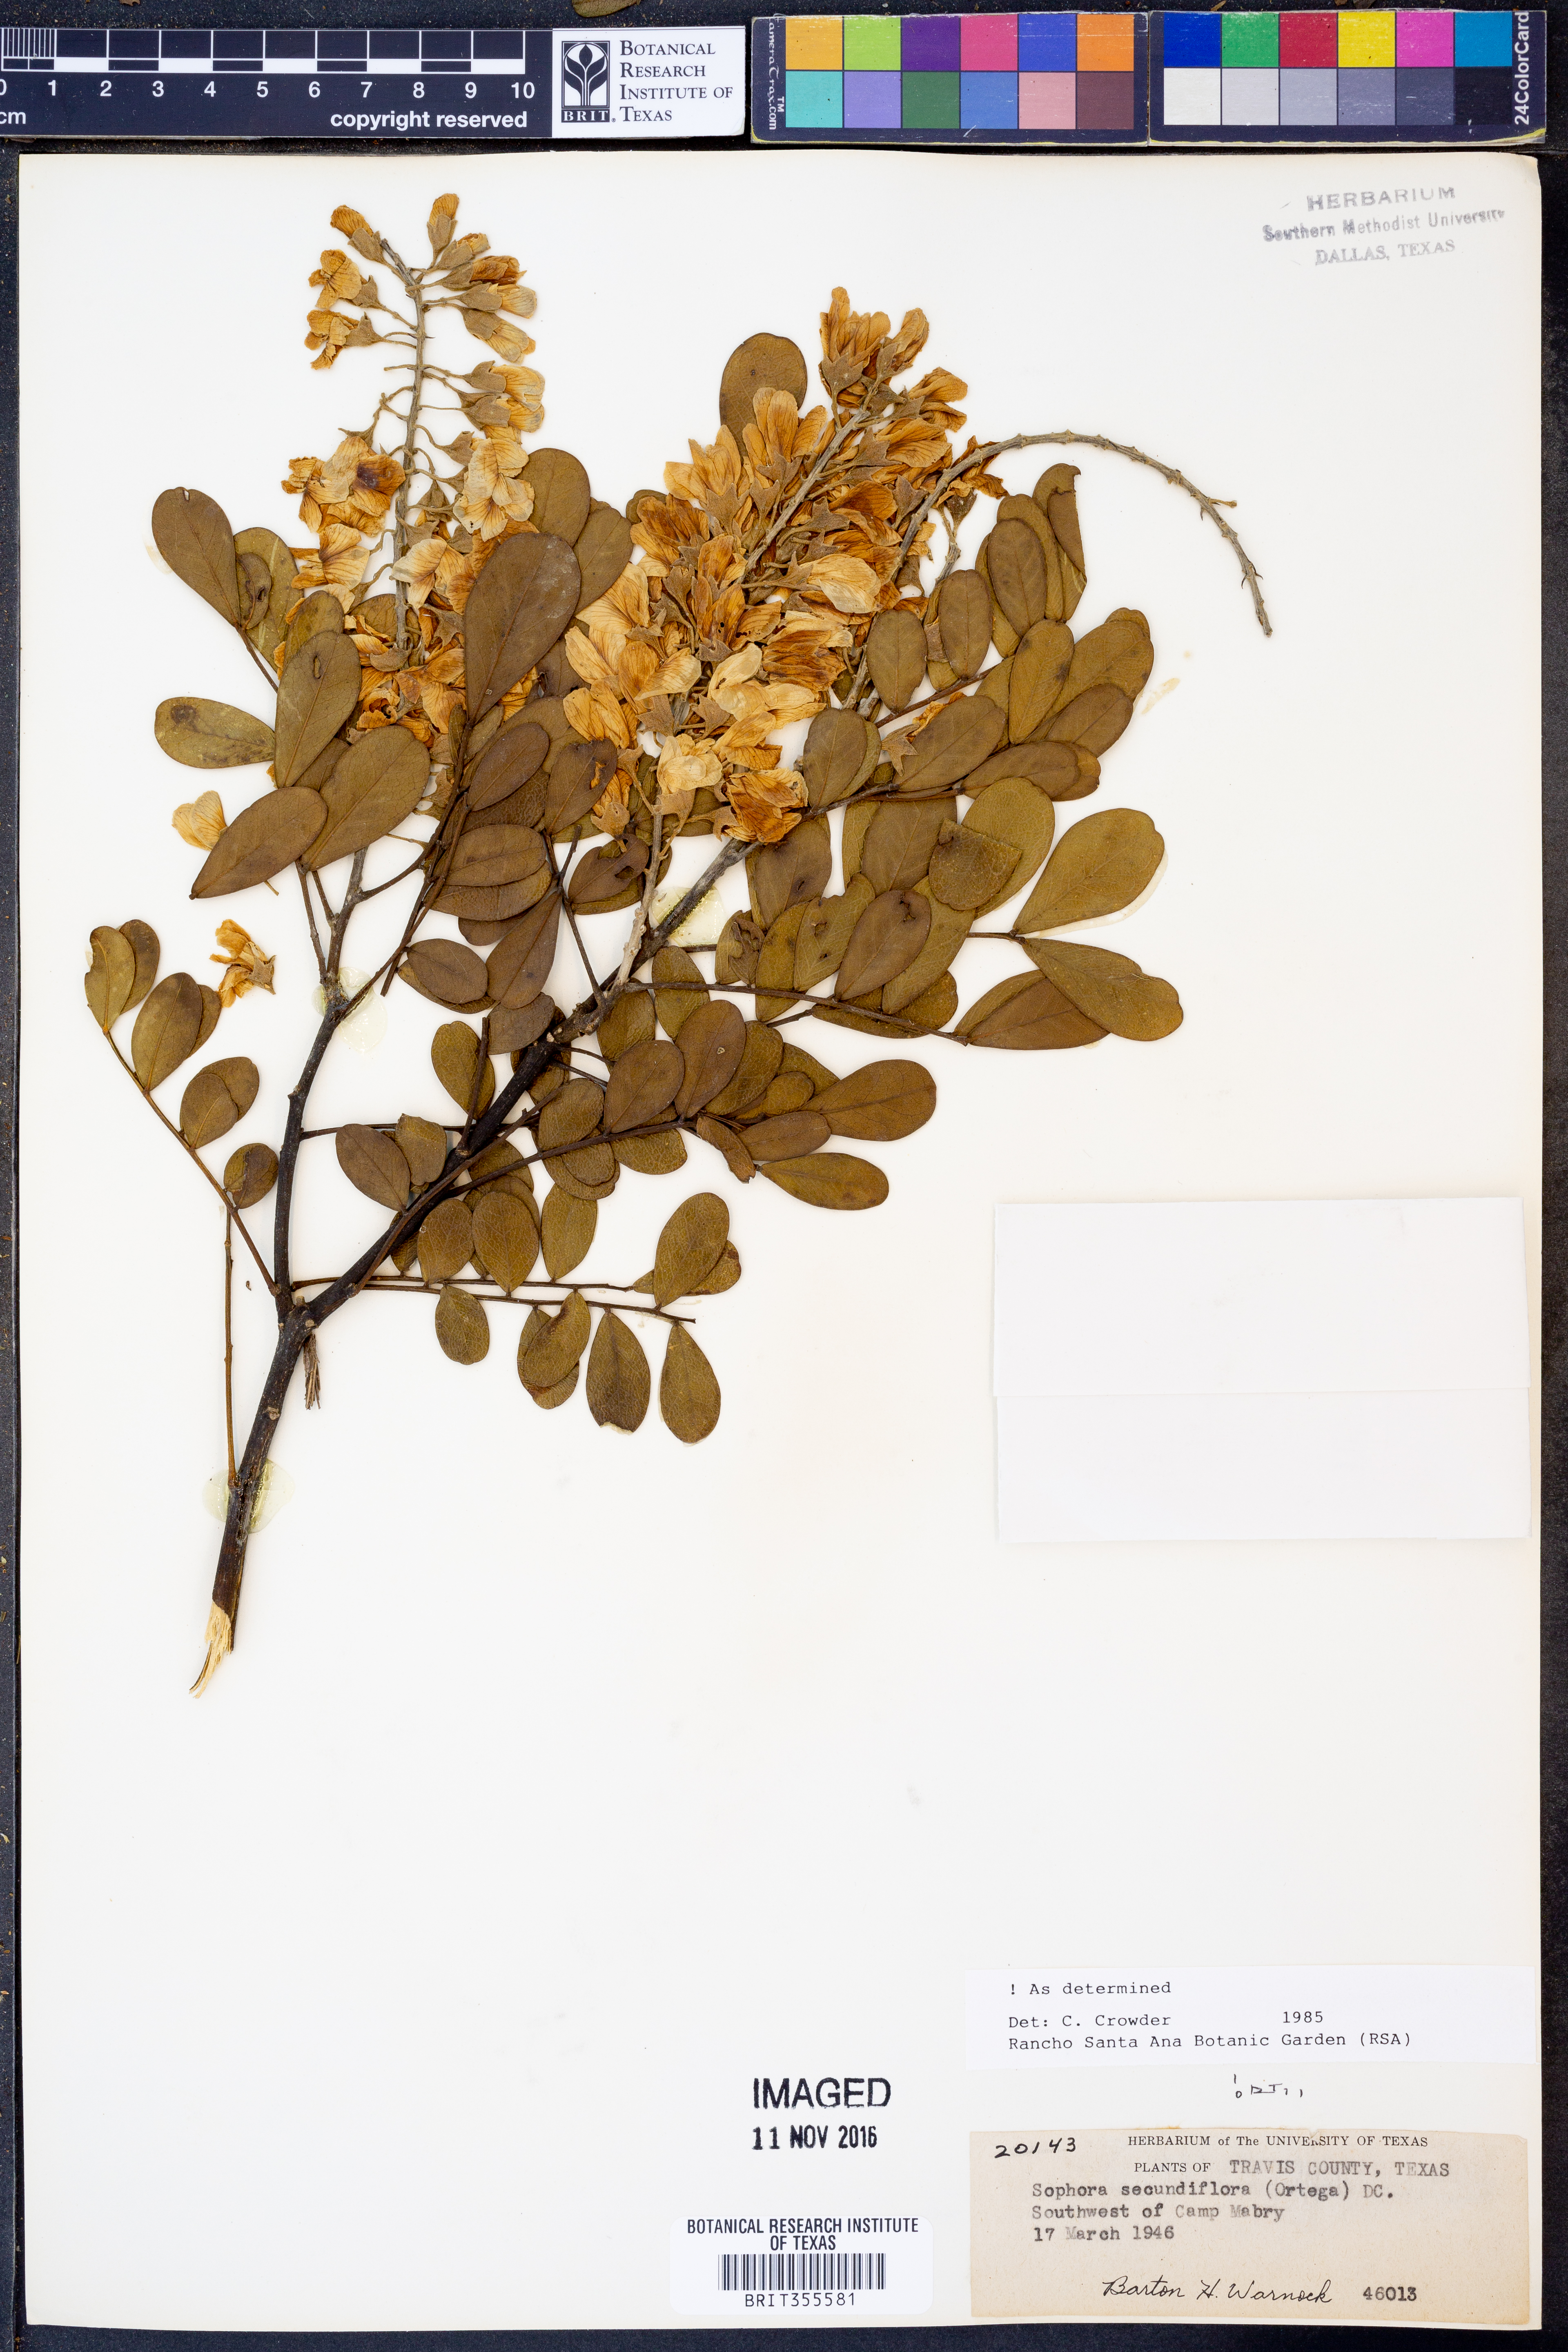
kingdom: Plantae
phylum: Tracheophyta
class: Magnoliopsida
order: Fabales
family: Fabaceae
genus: Dermatophyllum
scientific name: Dermatophyllum secundiflorum
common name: Texas-mountain-laurel
